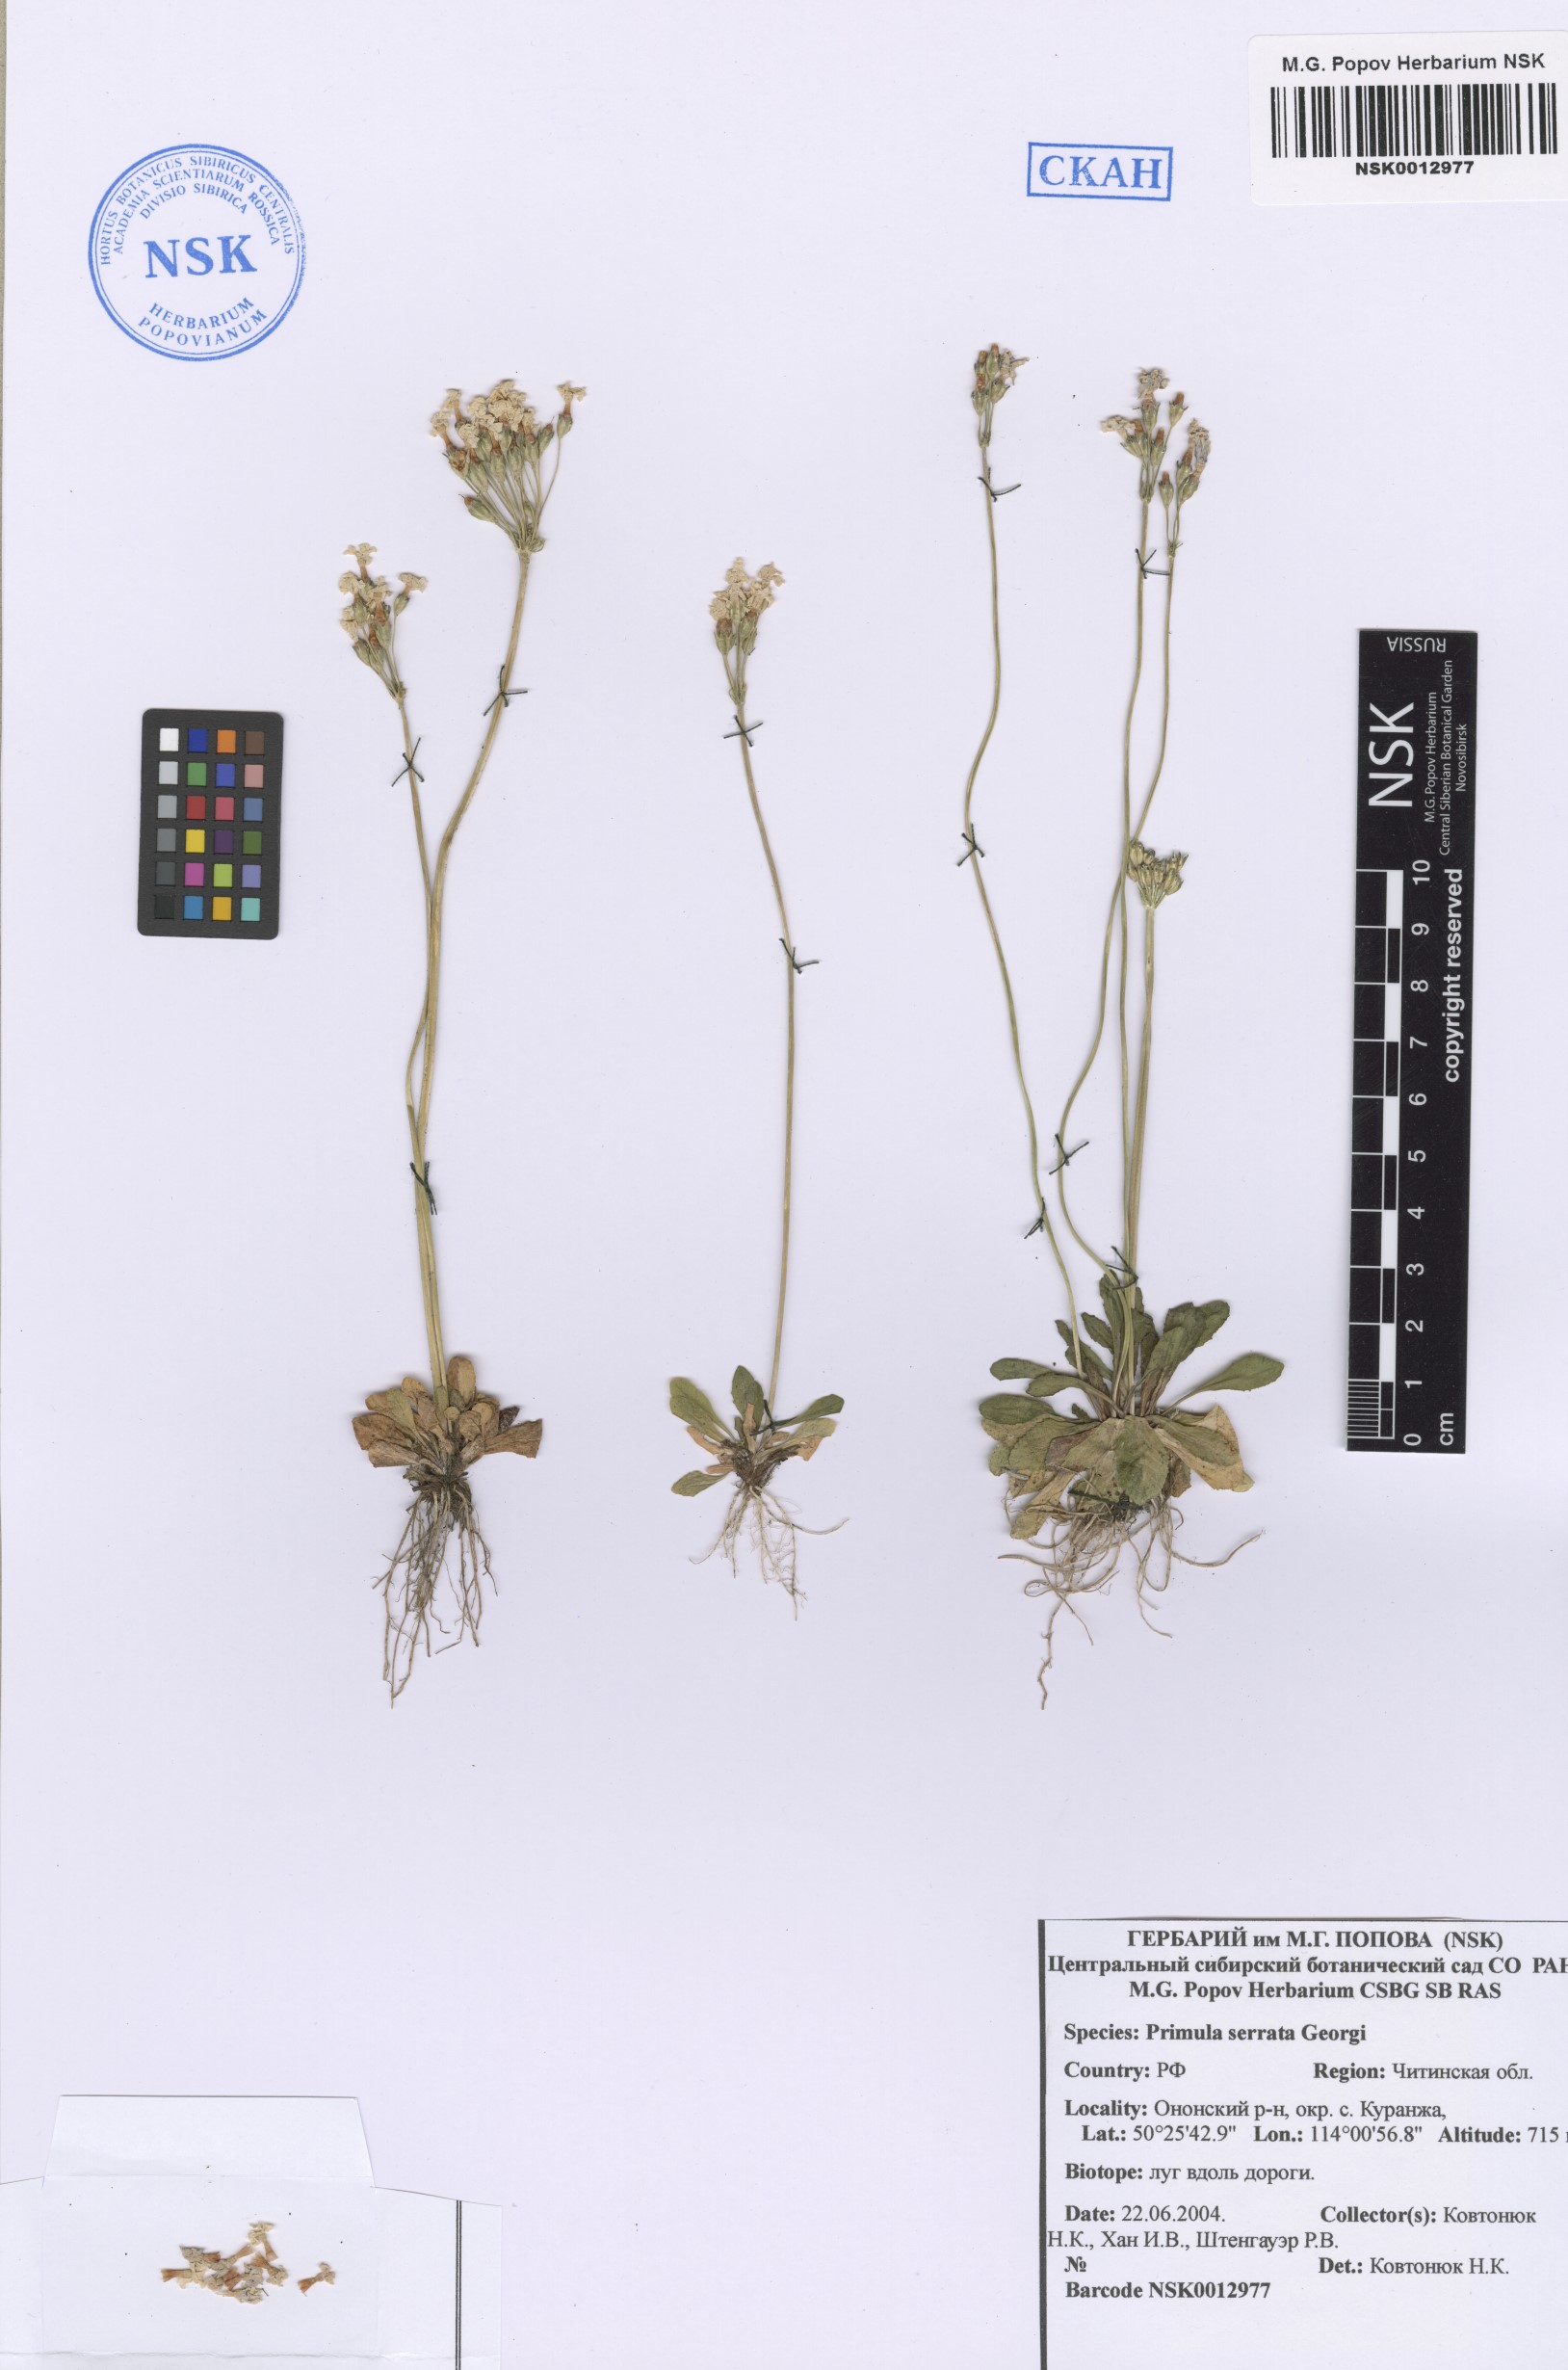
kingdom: Plantae
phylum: Tracheophyta
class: Magnoliopsida
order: Ericales
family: Primulaceae
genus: Primula
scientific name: Primula serrata
